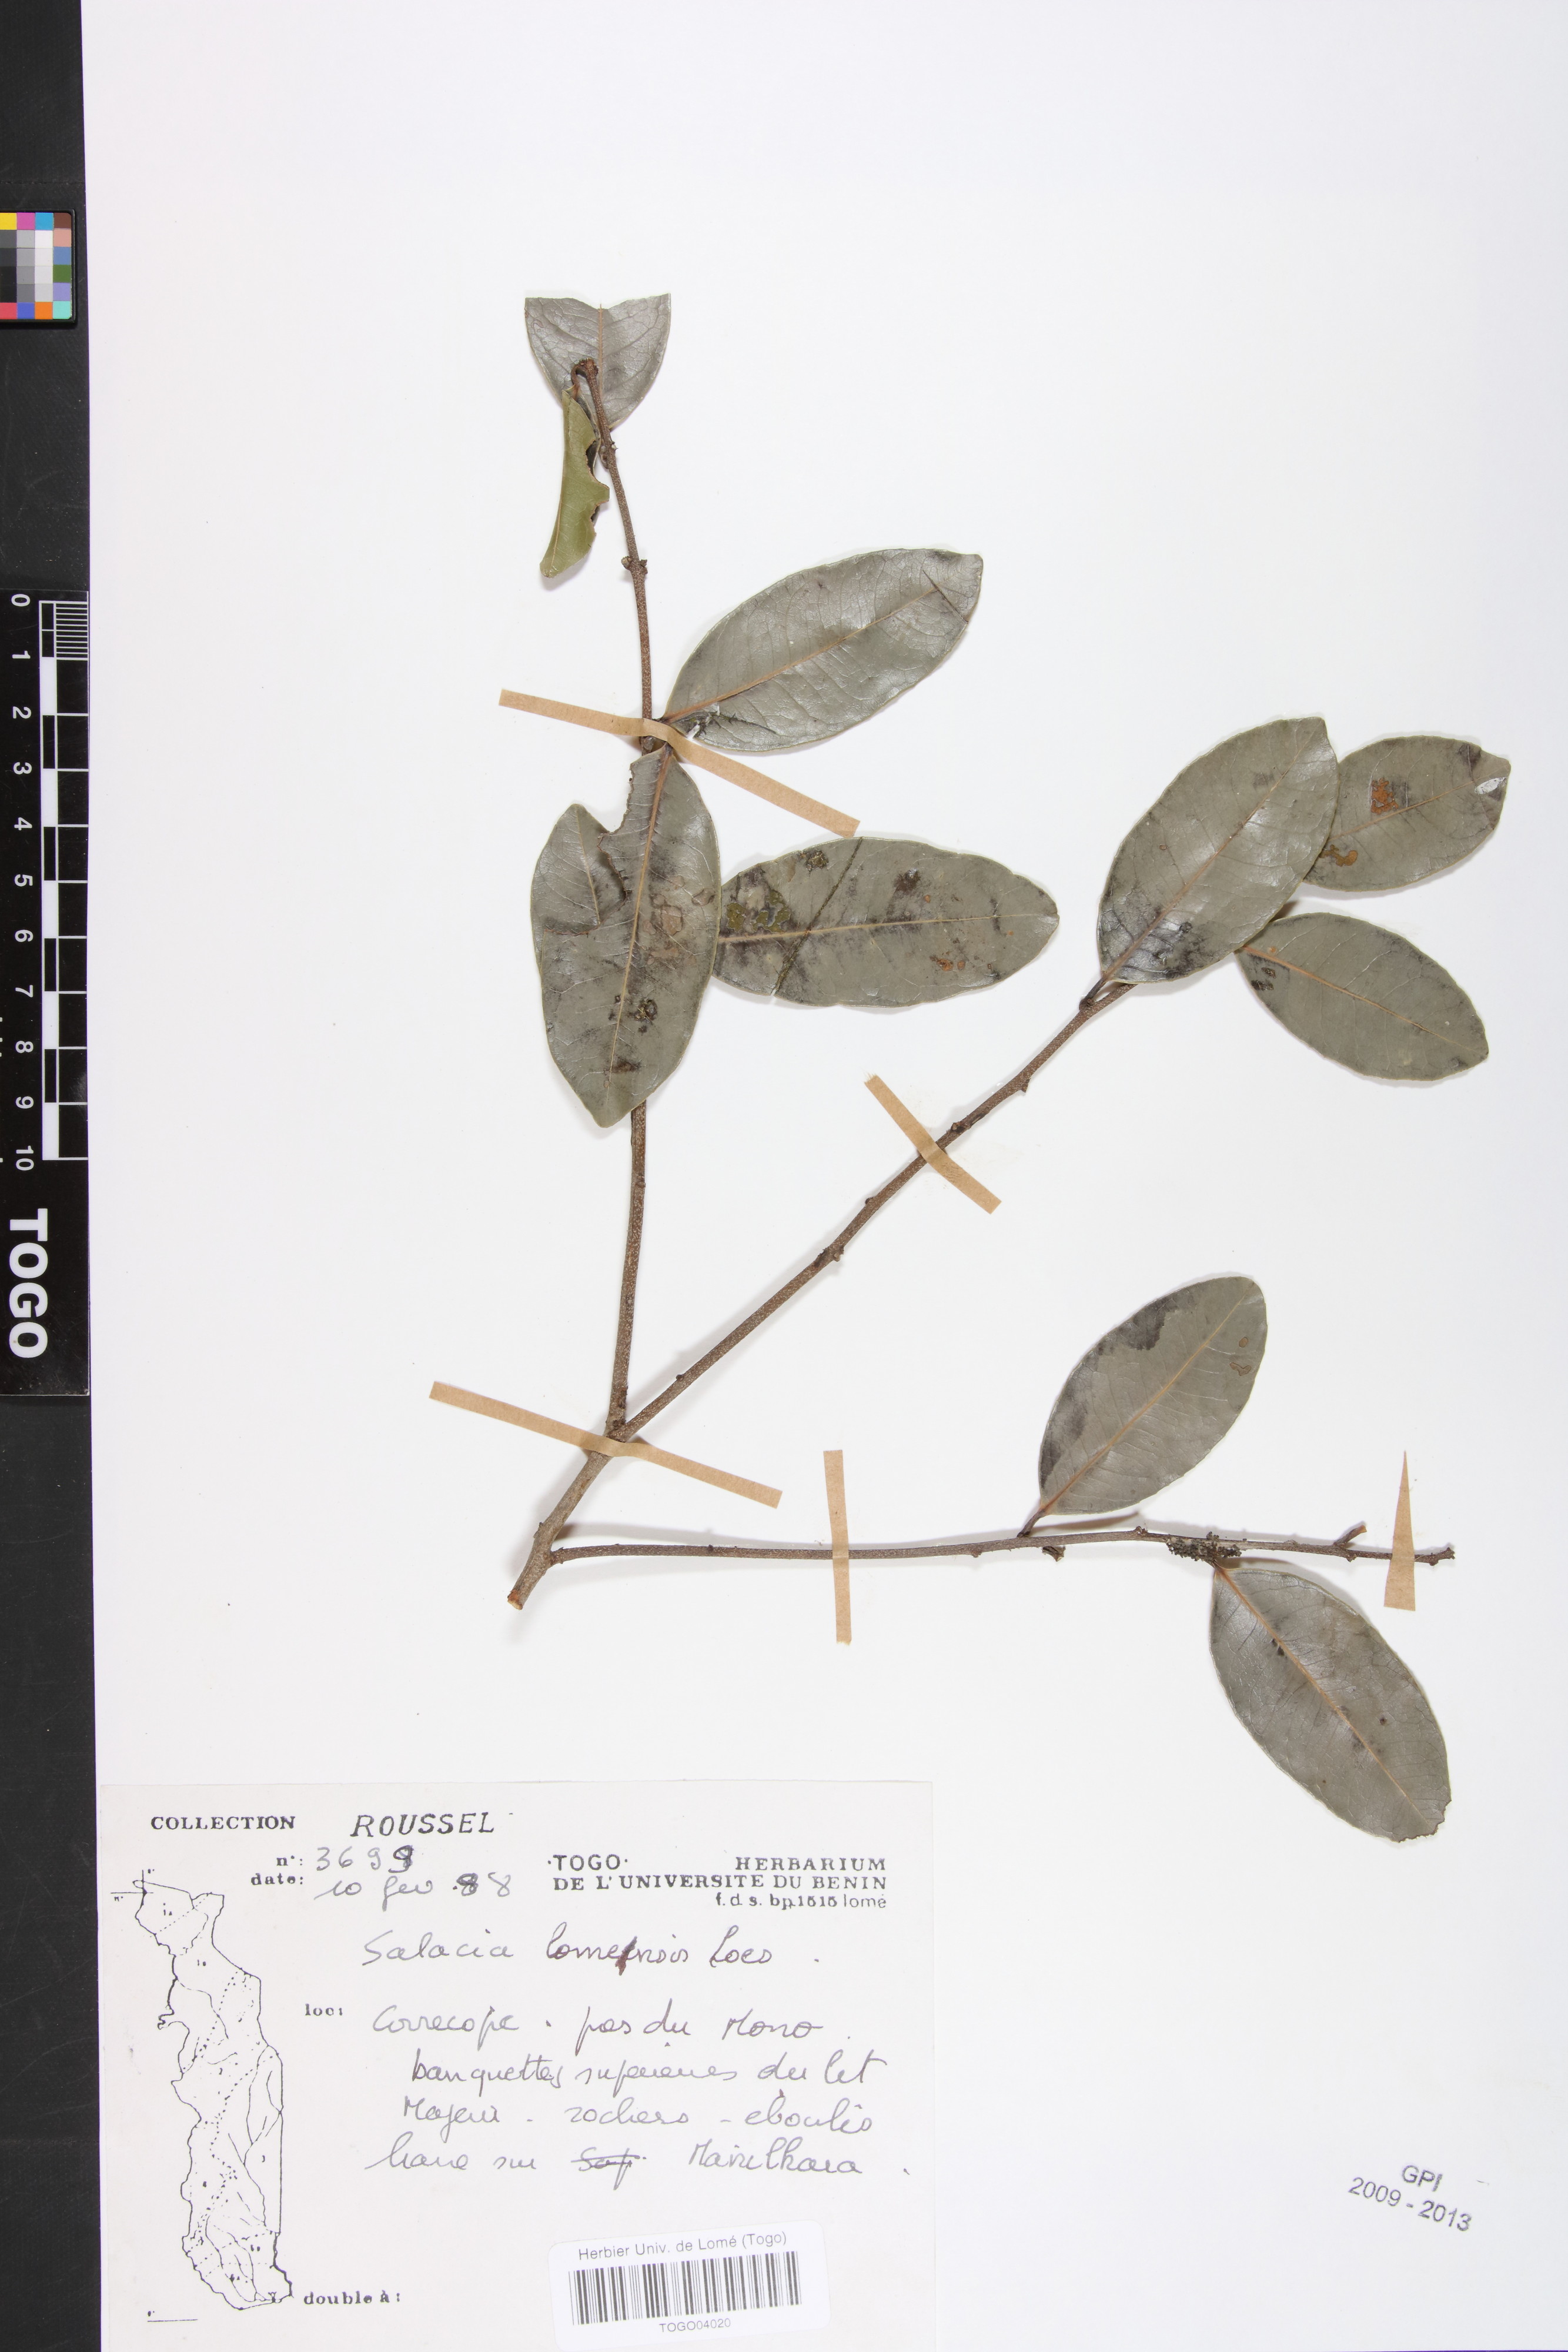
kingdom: Plantae
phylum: Tracheophyta
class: Magnoliopsida
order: Celastrales
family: Celastraceae
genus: Salacia
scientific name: Salacia stuhlmanniana
